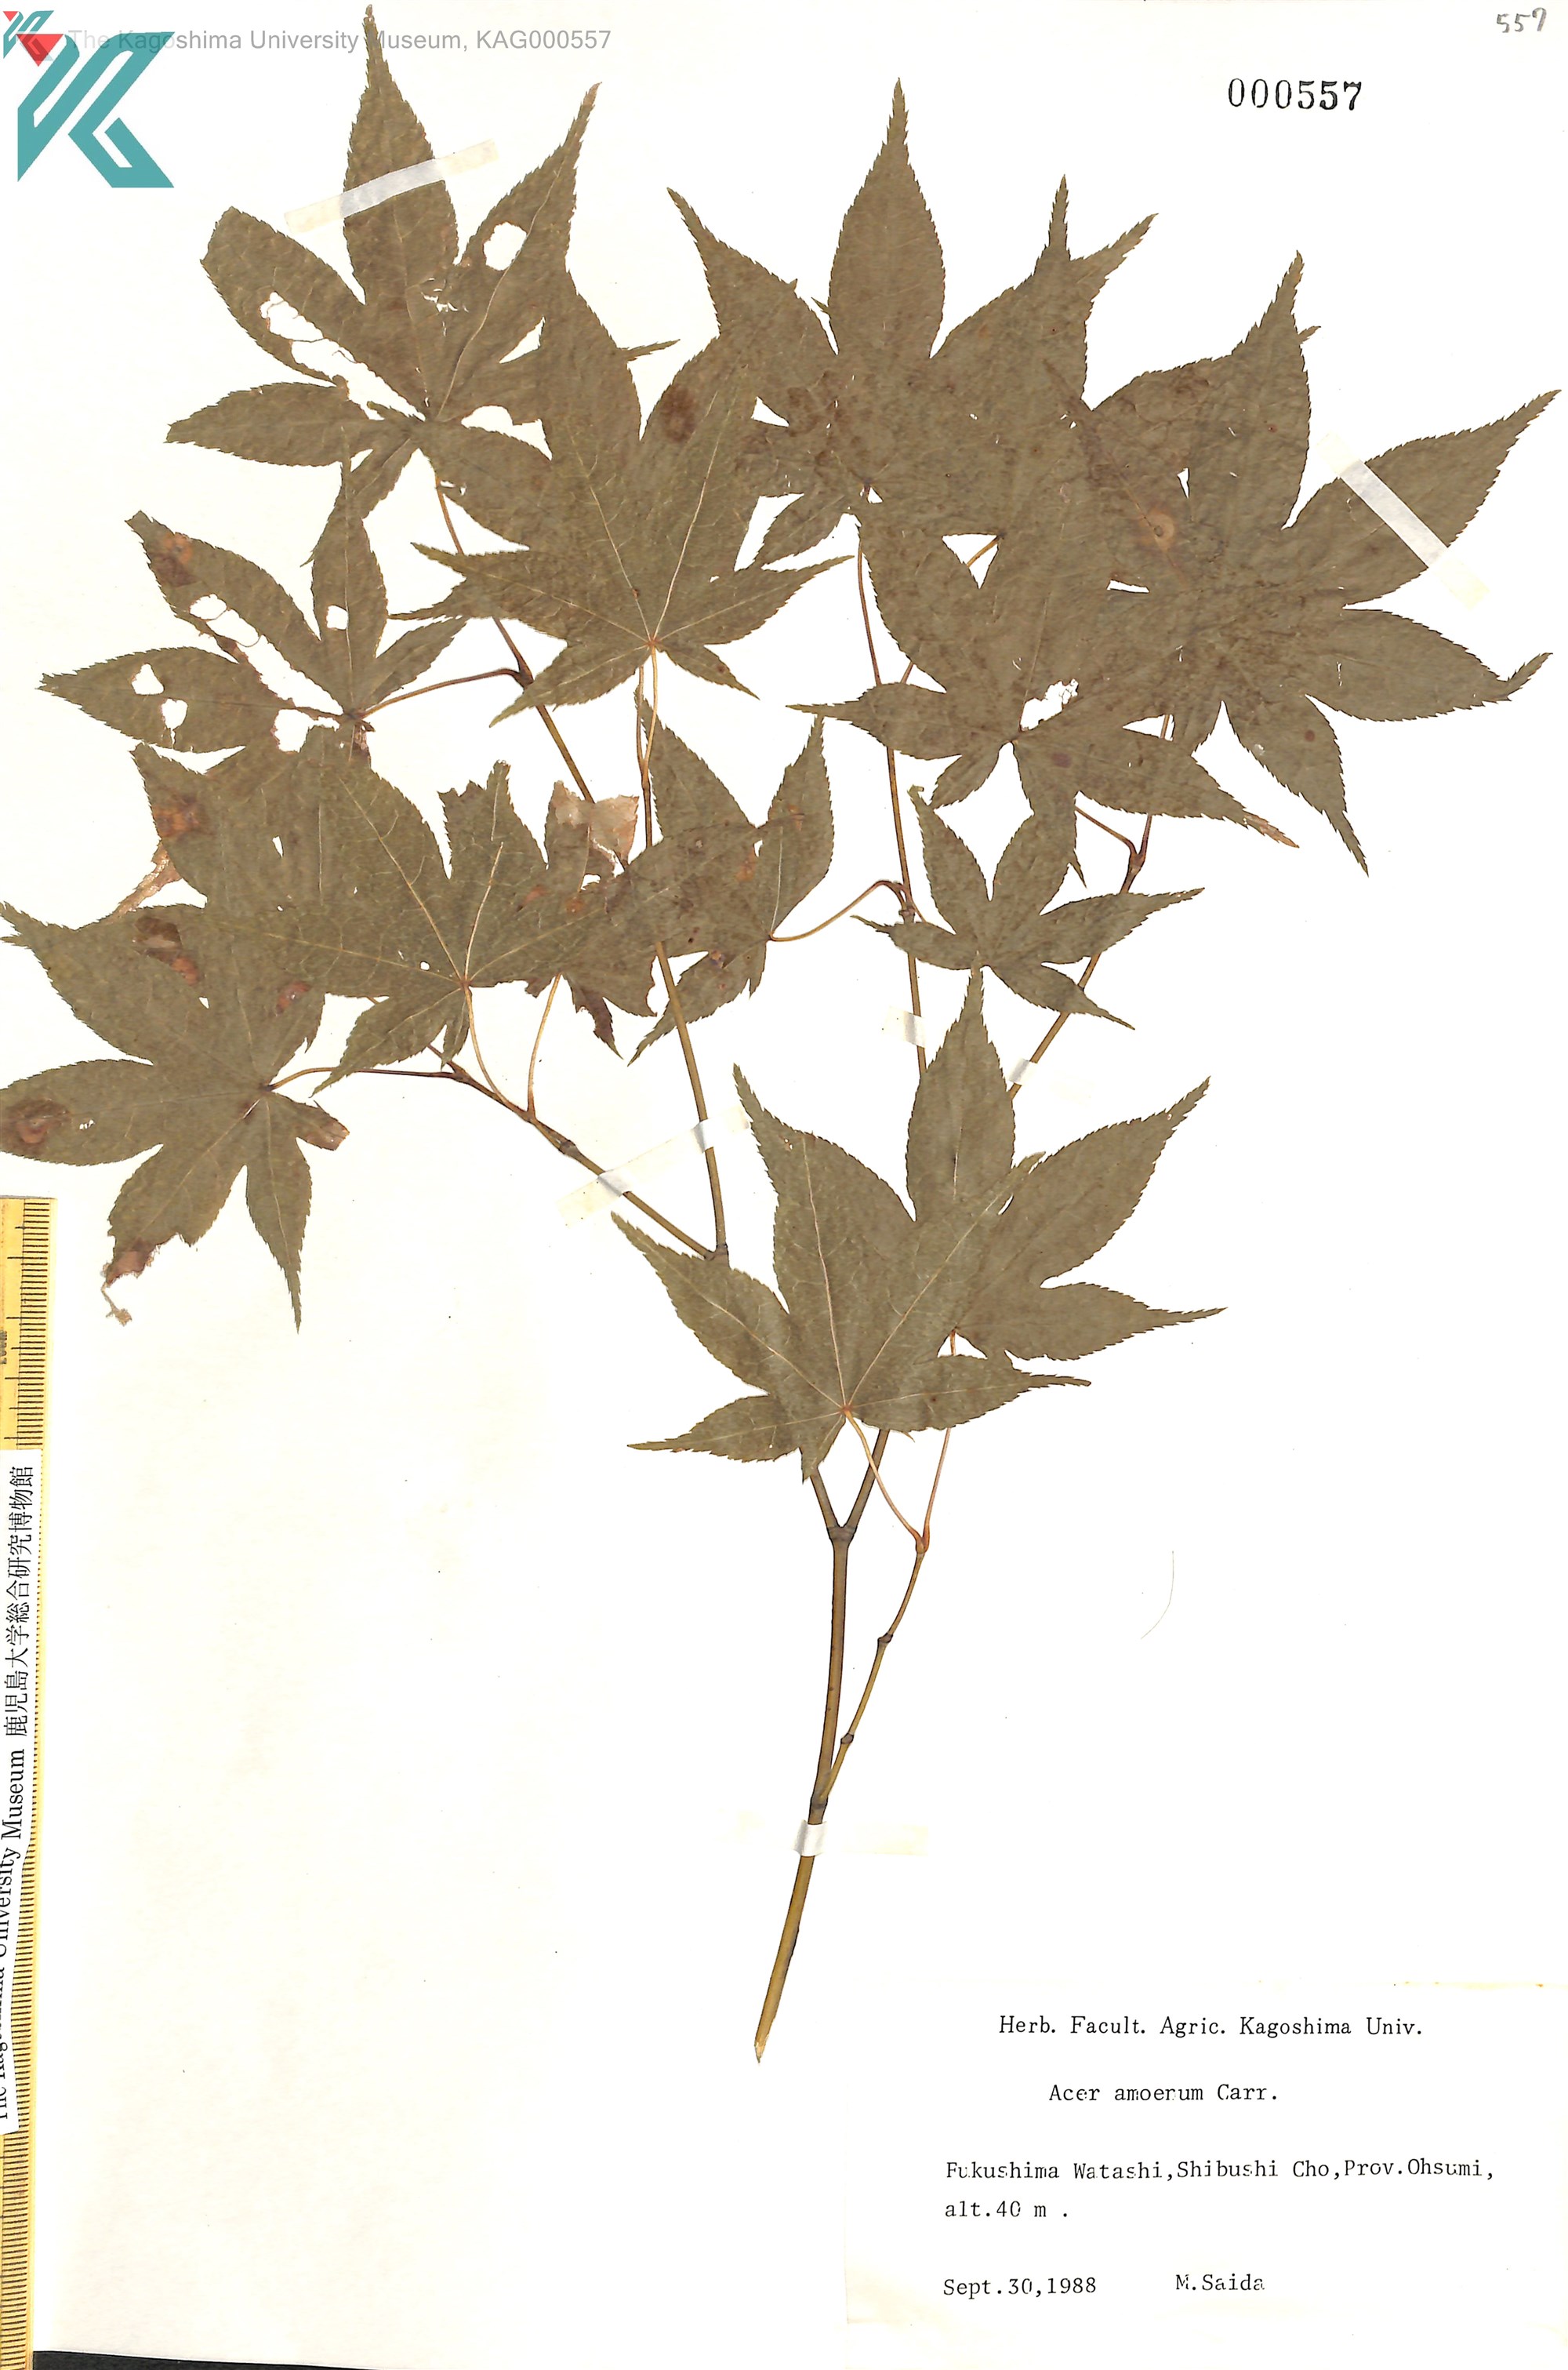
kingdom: Plantae
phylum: Tracheophyta
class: Magnoliopsida
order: Sapindales
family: Sapindaceae
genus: Acer
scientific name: Acer palmatum
